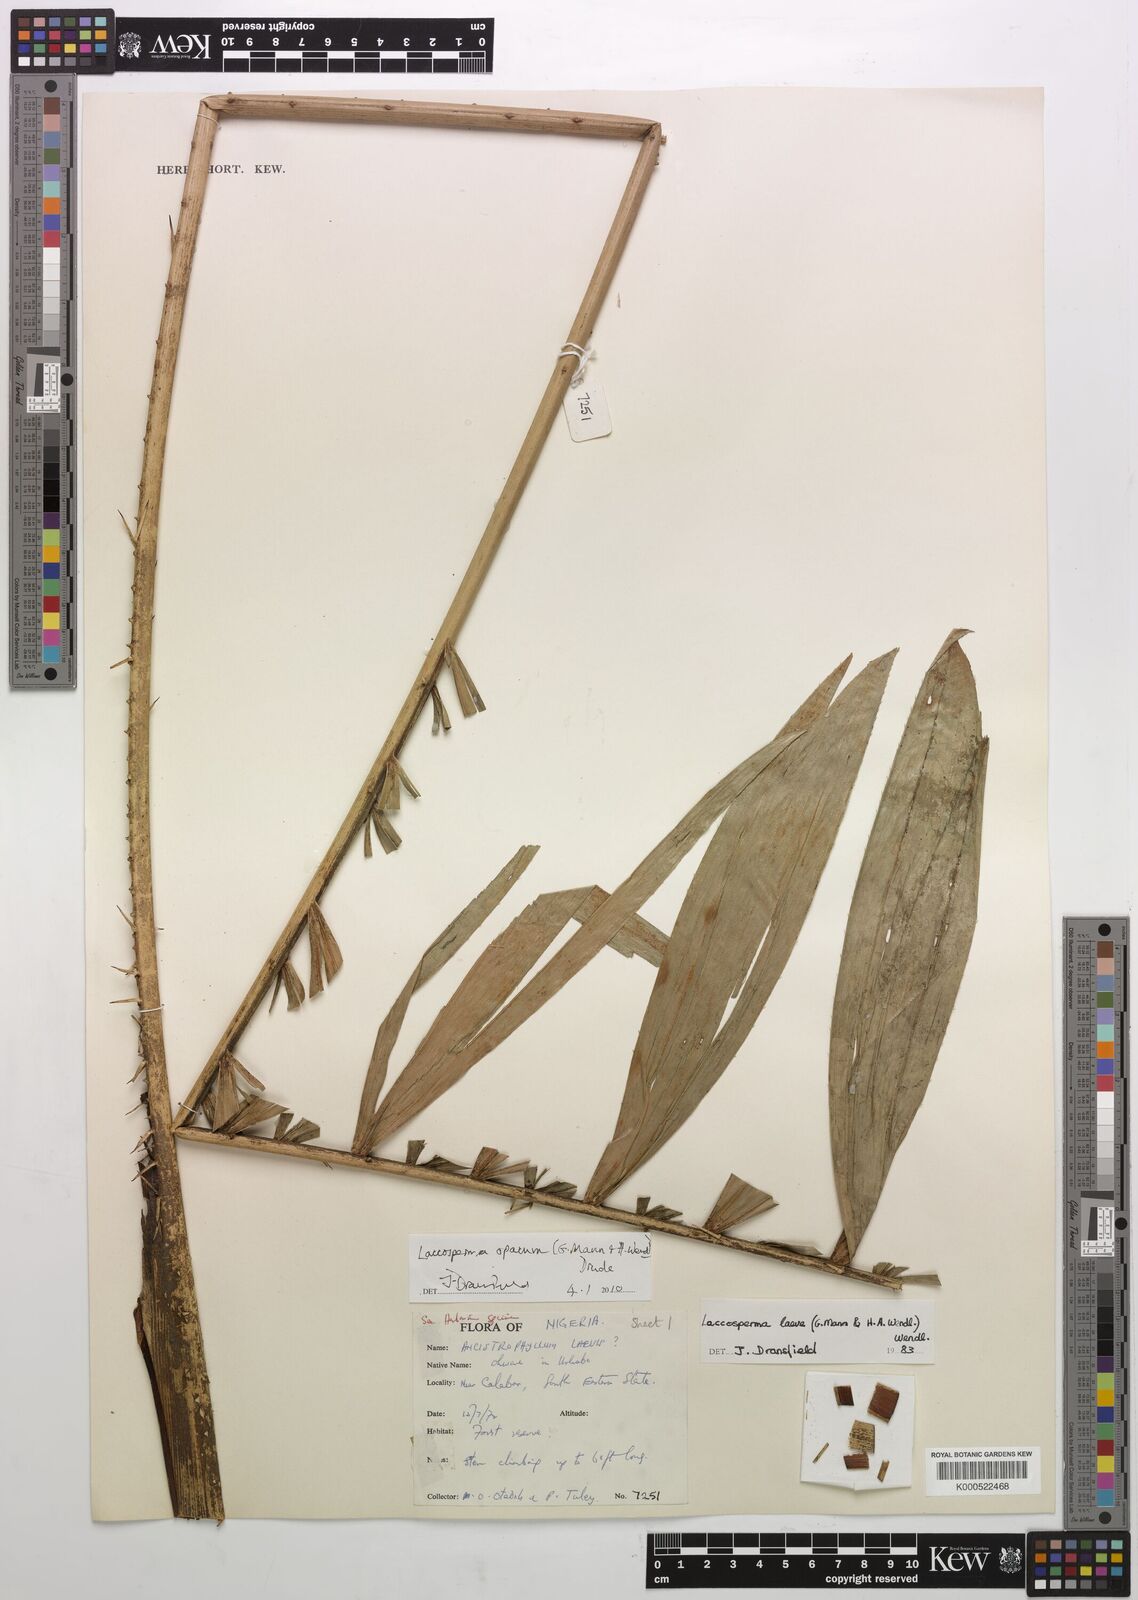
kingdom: Plantae
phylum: Tracheophyta
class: Liliopsida
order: Arecales
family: Arecaceae
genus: Laccosperma
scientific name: Laccosperma opacum
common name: Rattan
